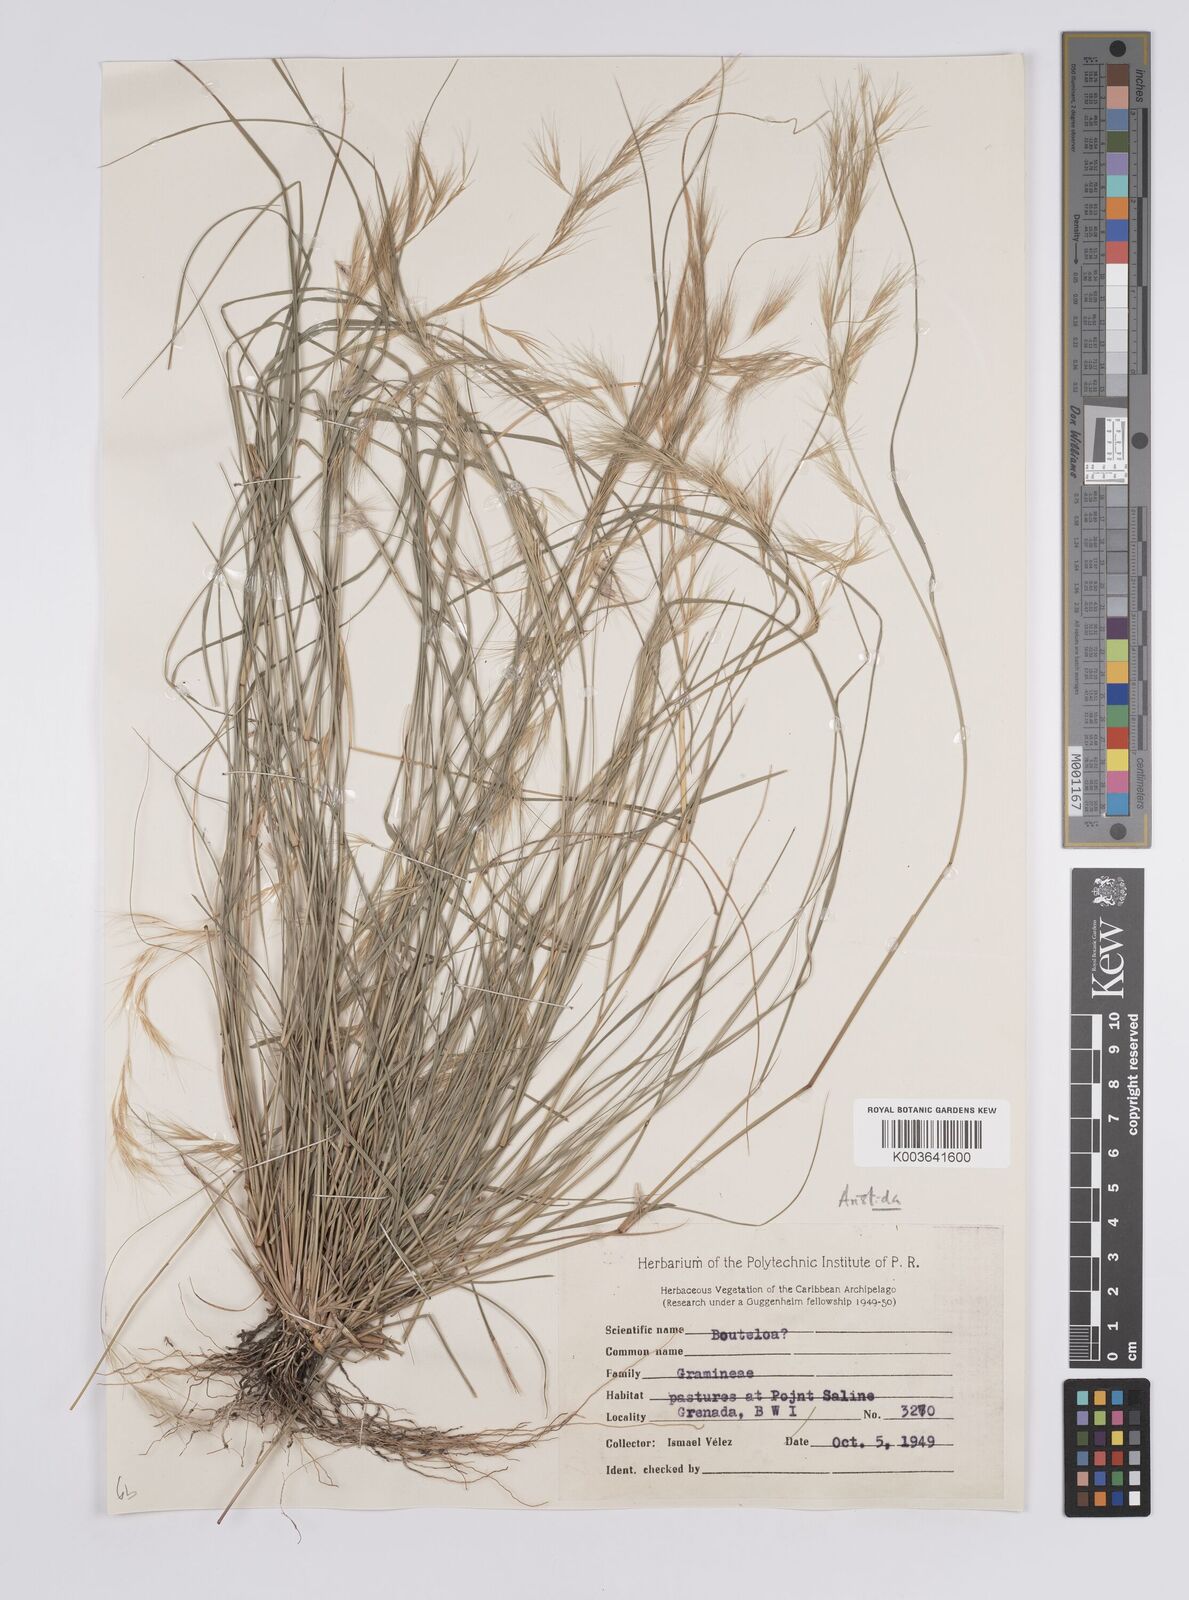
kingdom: Plantae
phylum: Tracheophyta
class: Liliopsida
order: Poales
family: Poaceae
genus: Aristida
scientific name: Aristida adscensionis
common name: Sixweeks threeawn
